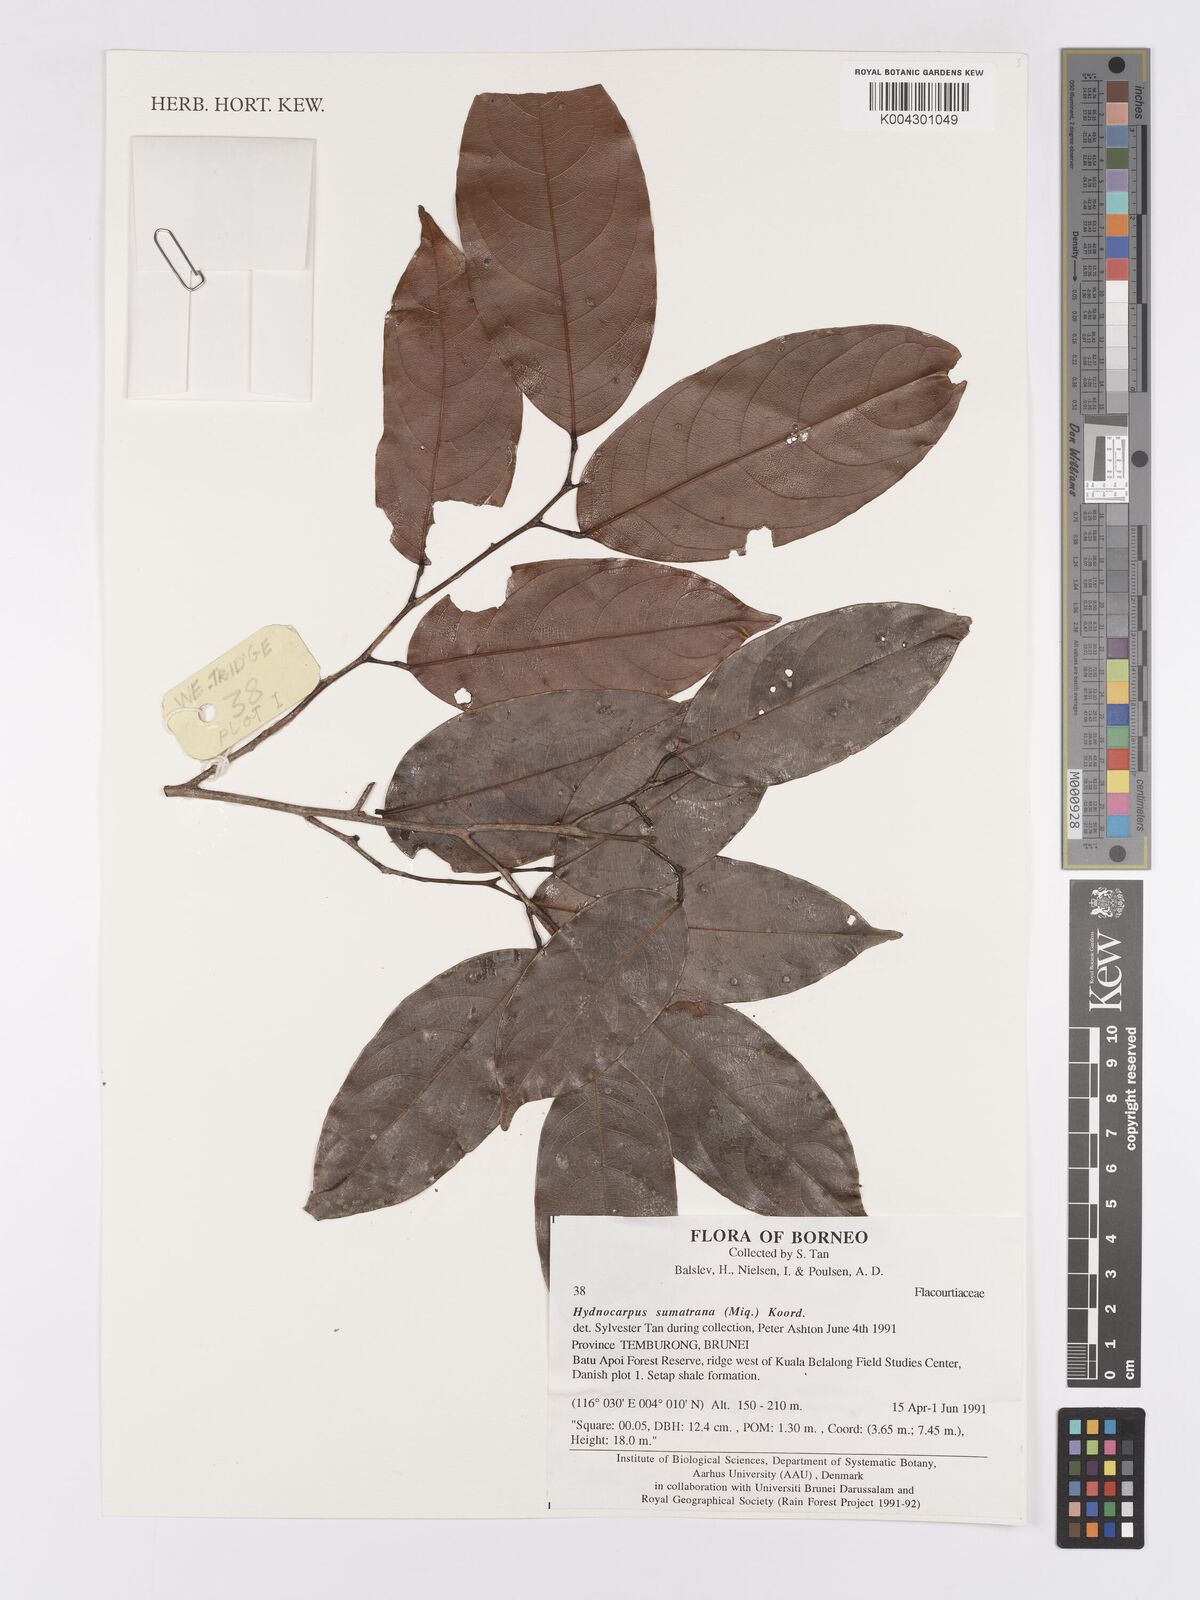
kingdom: Plantae
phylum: Tracheophyta
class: Magnoliopsida
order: Malpighiales
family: Achariaceae
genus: Hydnocarpus
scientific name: Hydnocarpus sumatranus
